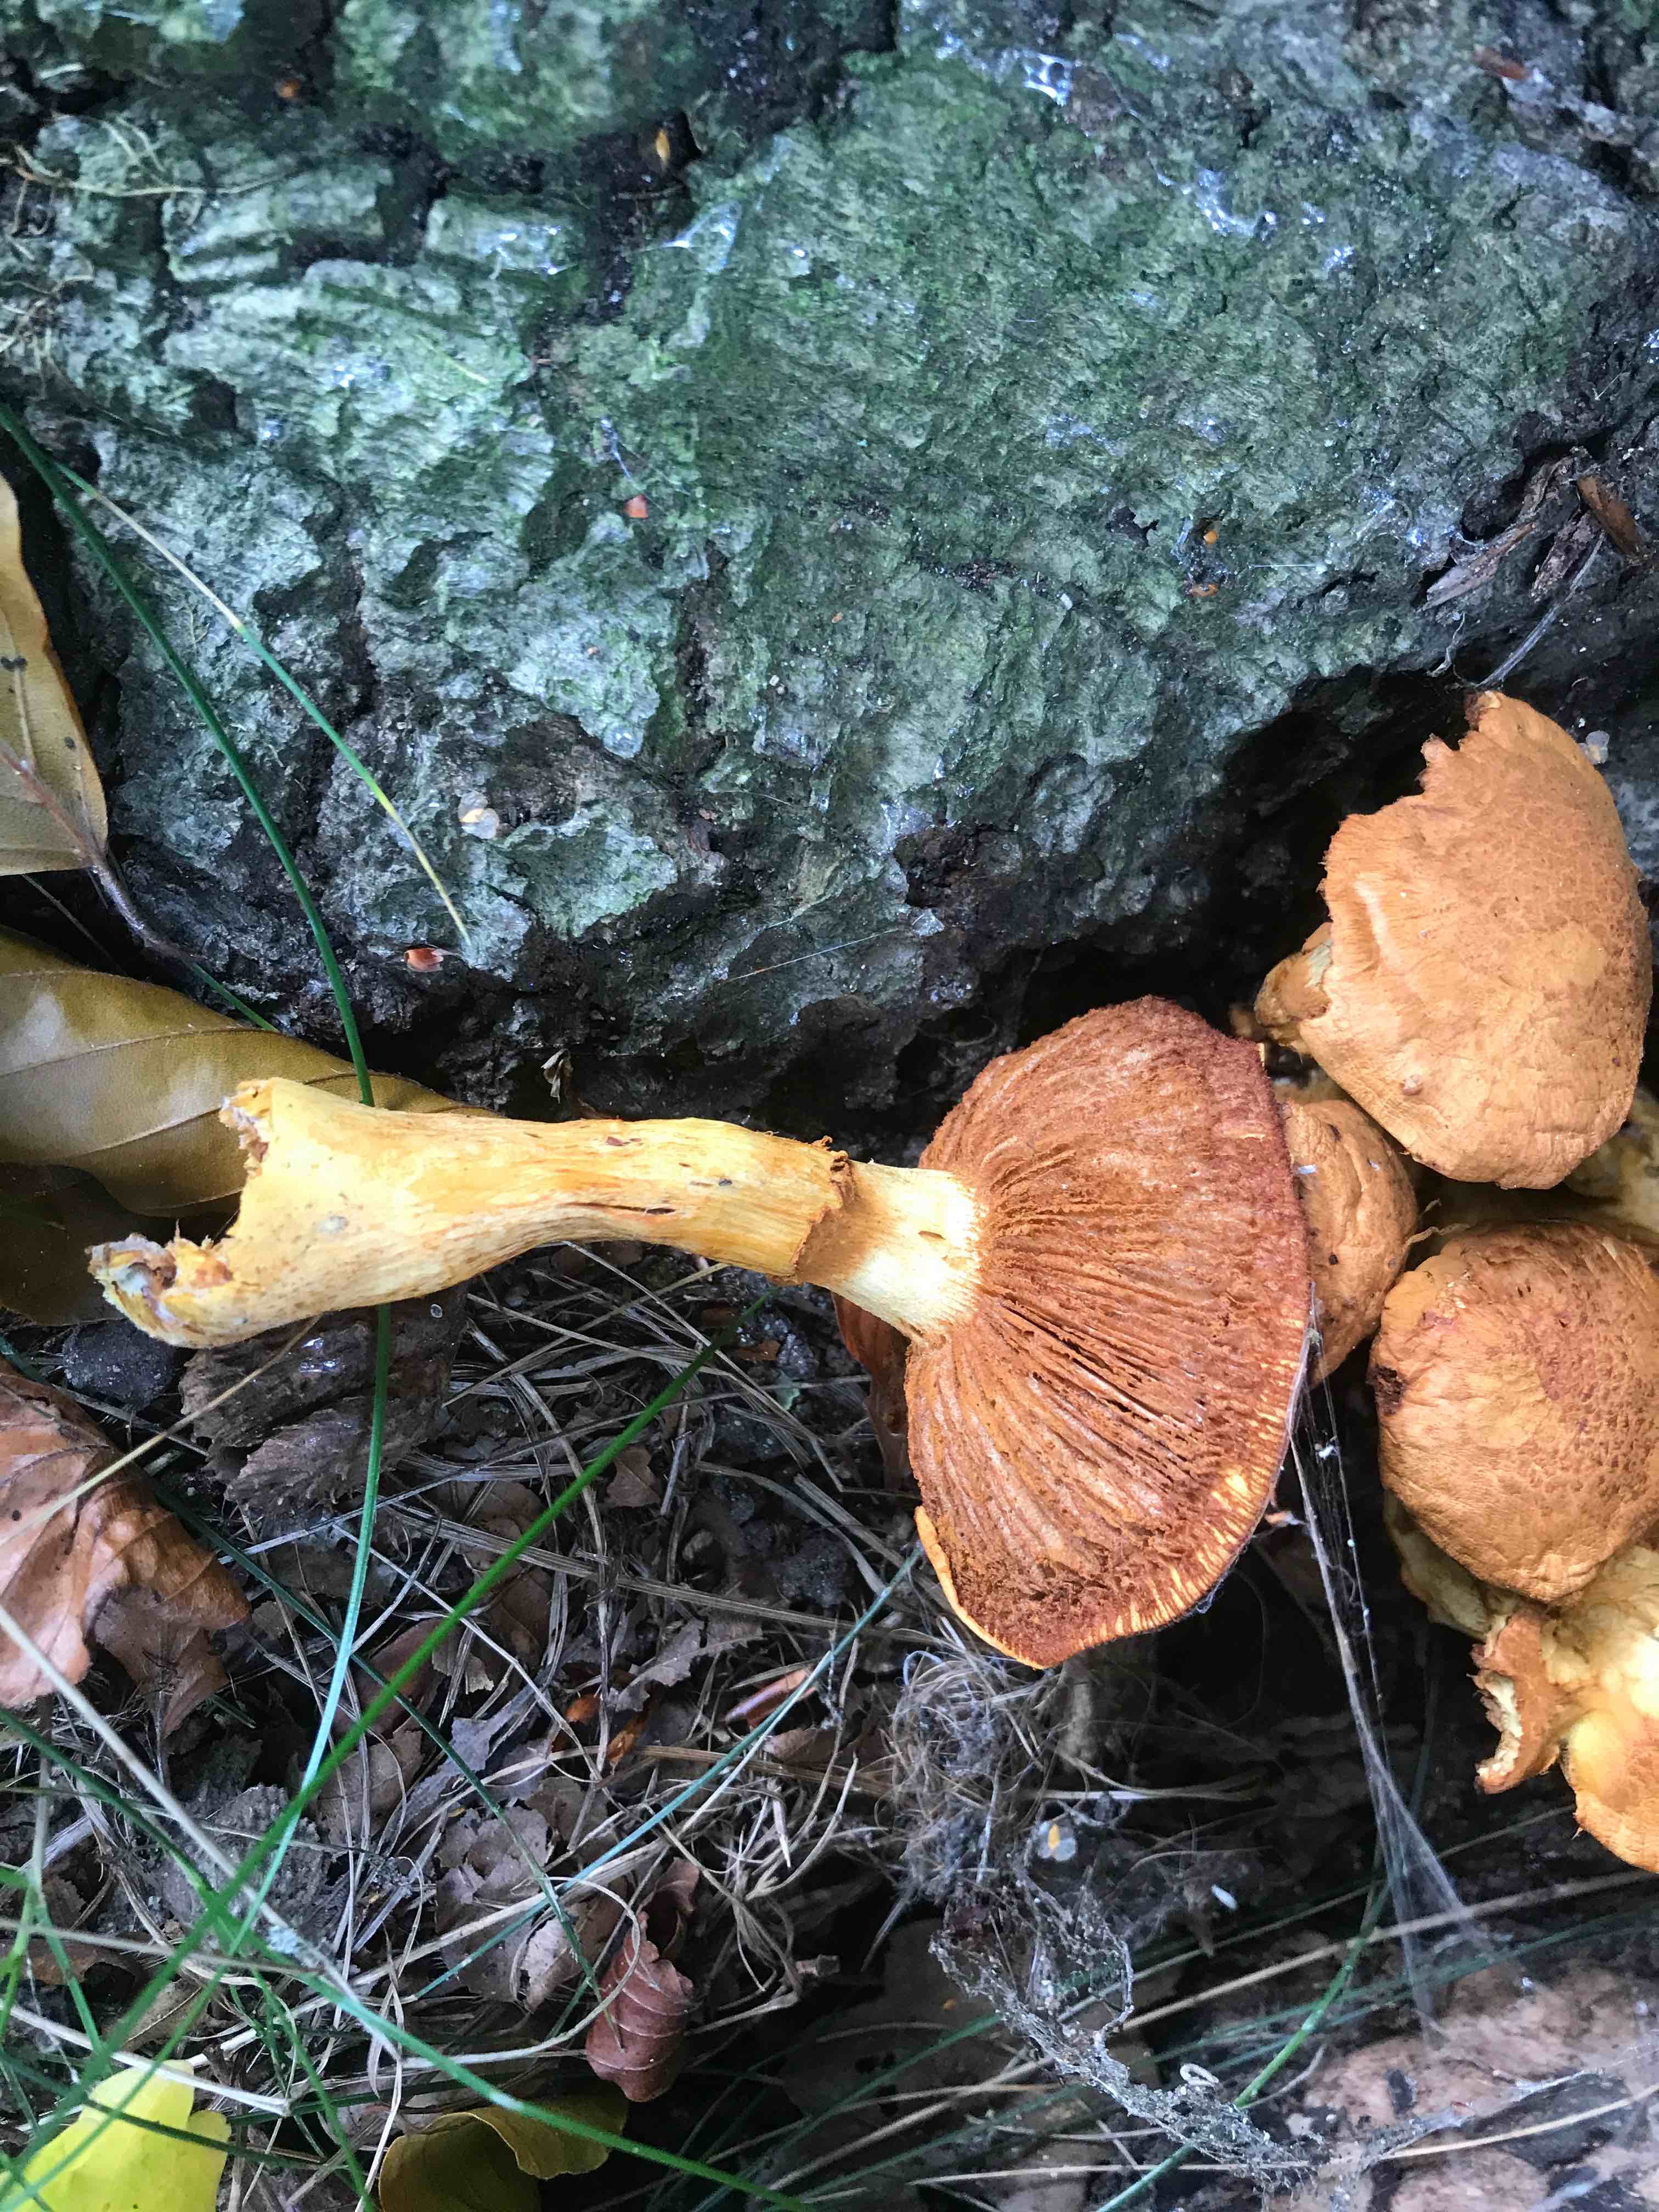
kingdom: Fungi
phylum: Basidiomycota
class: Agaricomycetes
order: Agaricales
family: Hymenogastraceae
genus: Gymnopilus
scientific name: Gymnopilus spectabilis
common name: fibret flammehat
